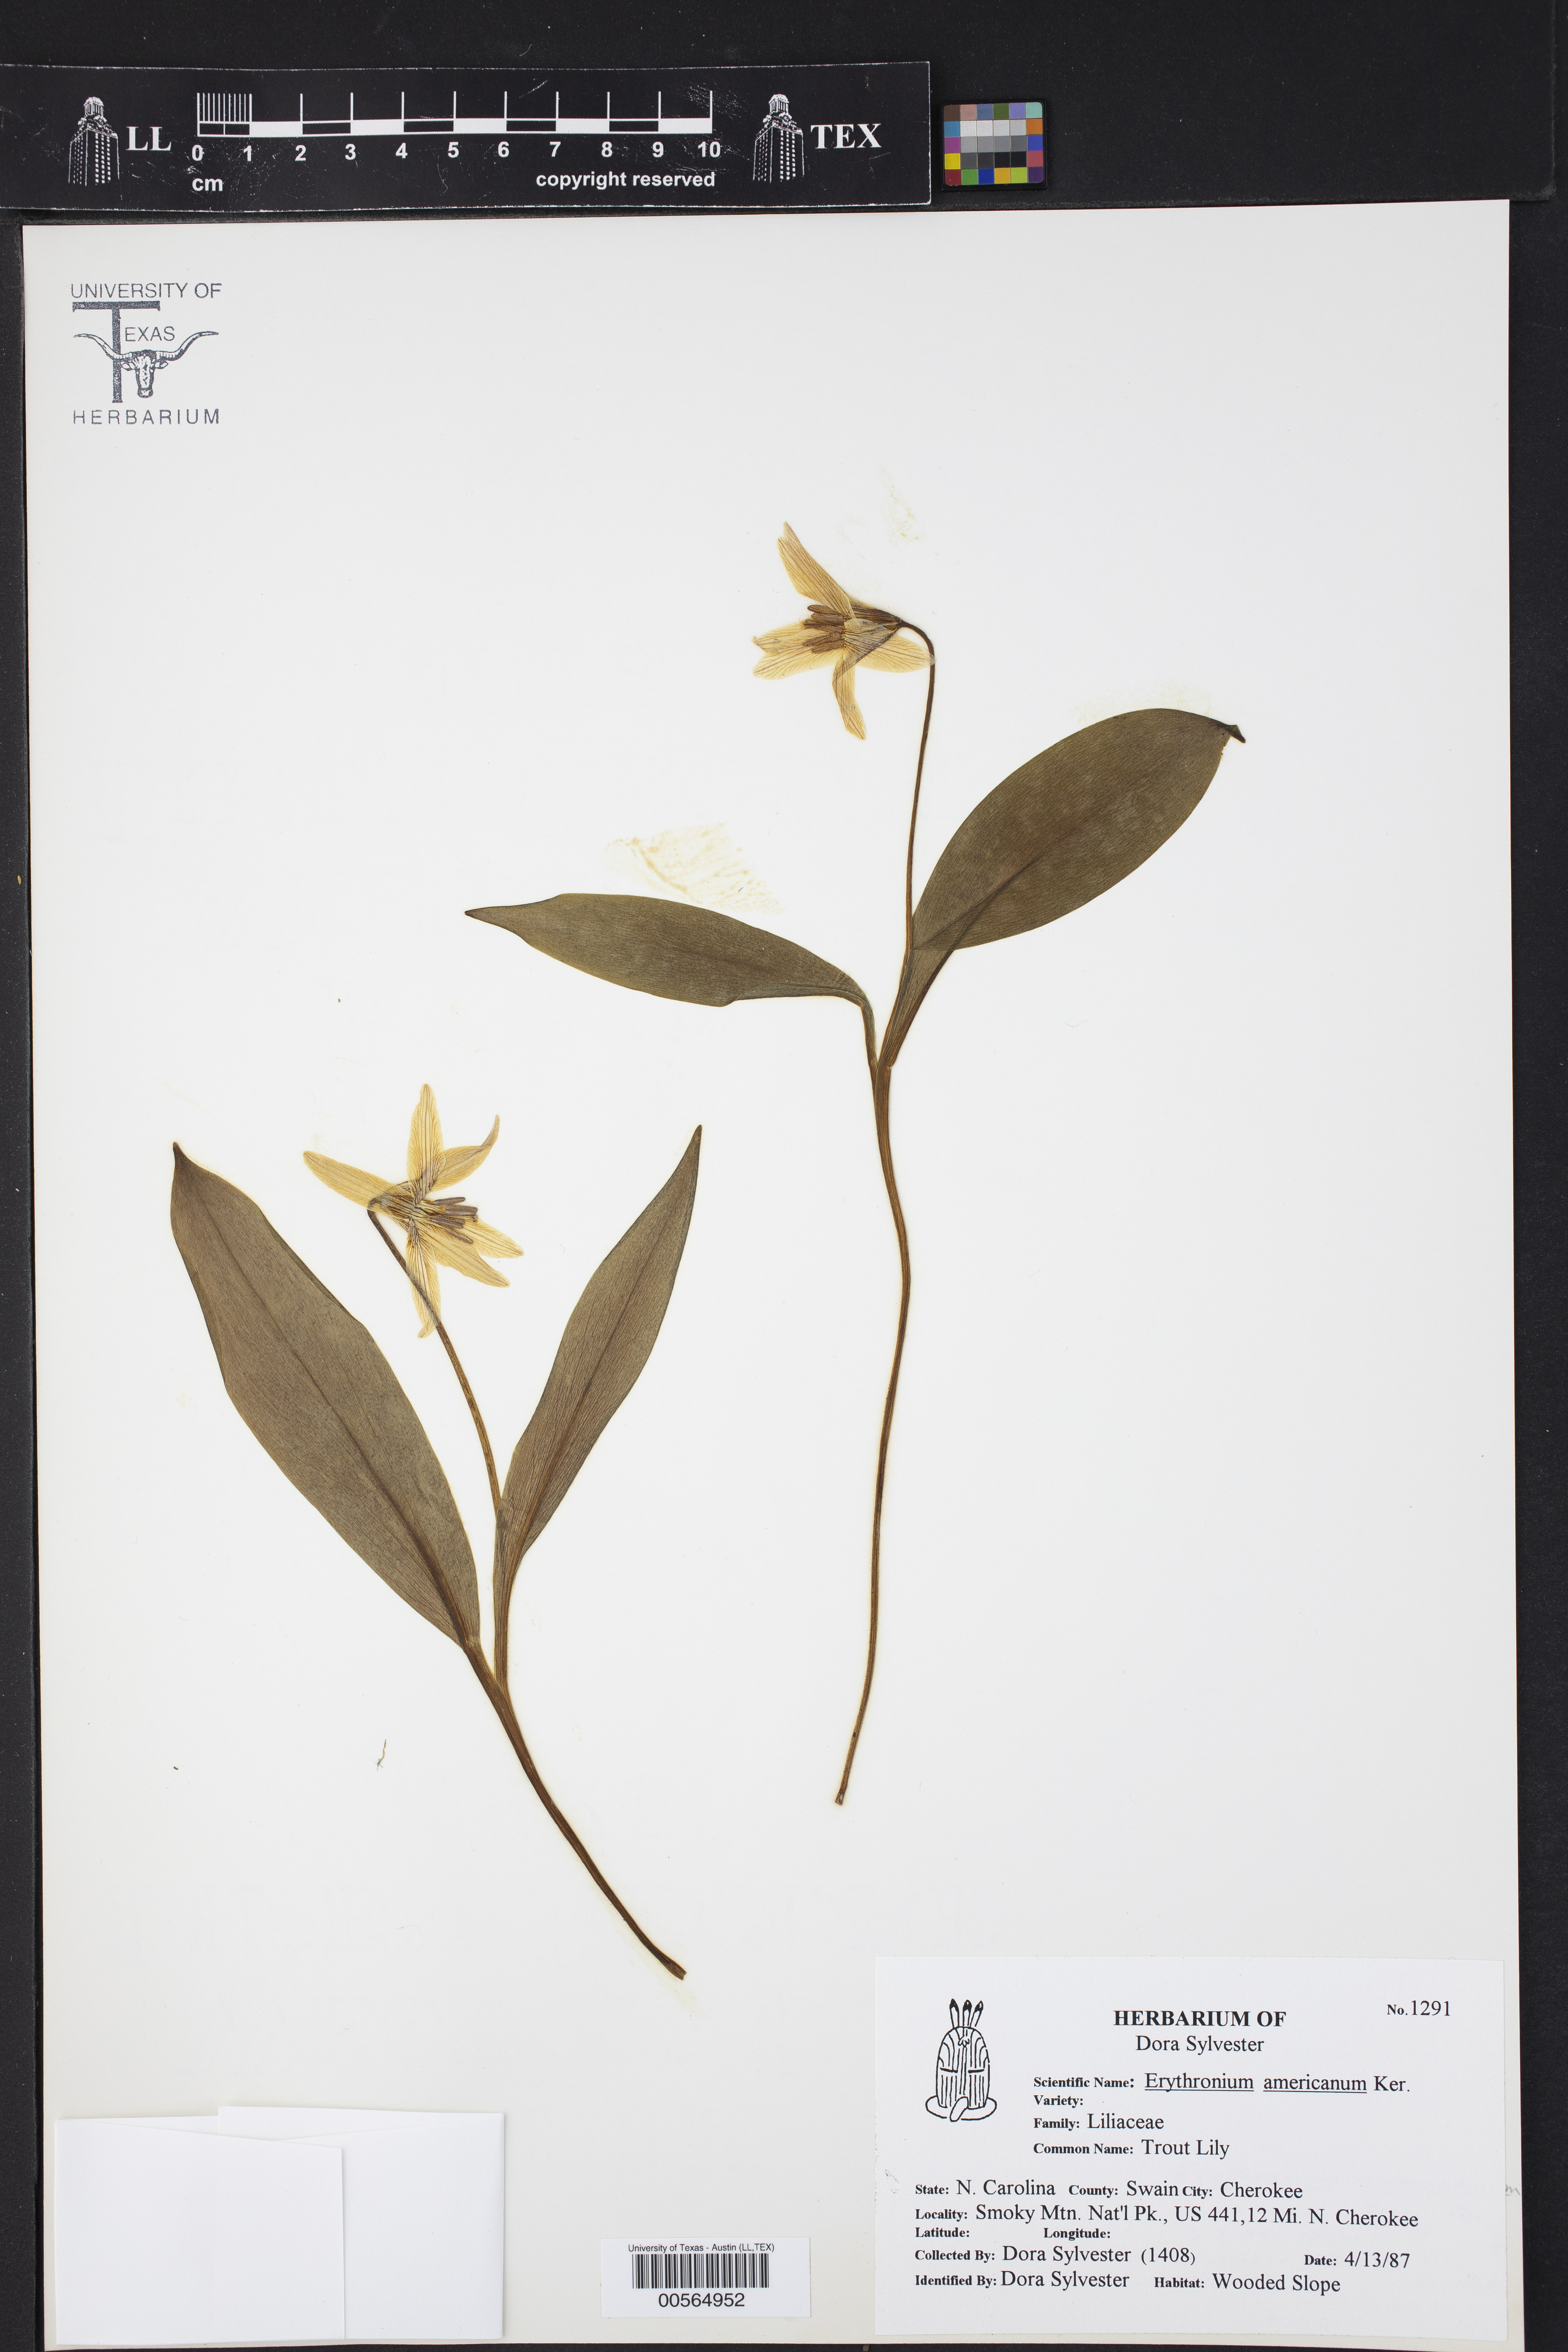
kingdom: Plantae
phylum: Tracheophyta
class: Liliopsida
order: Liliales
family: Liliaceae
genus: Erythronium
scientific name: Erythronium americanum
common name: Yellow adder's-tongue
